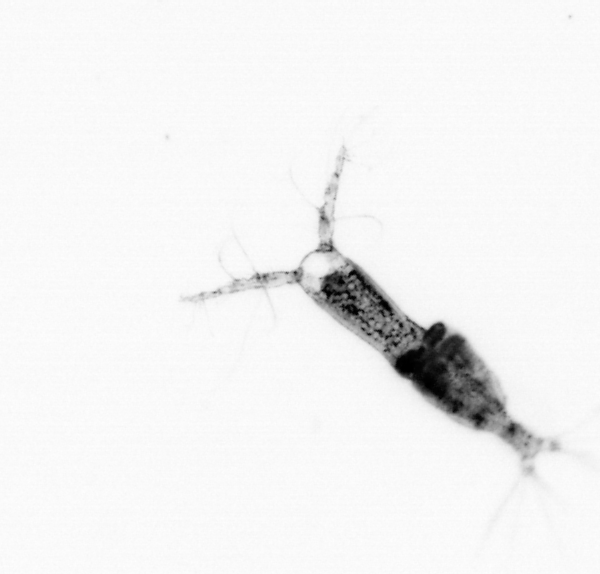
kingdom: Animalia
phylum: Arthropoda
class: Copepoda
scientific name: Copepoda
